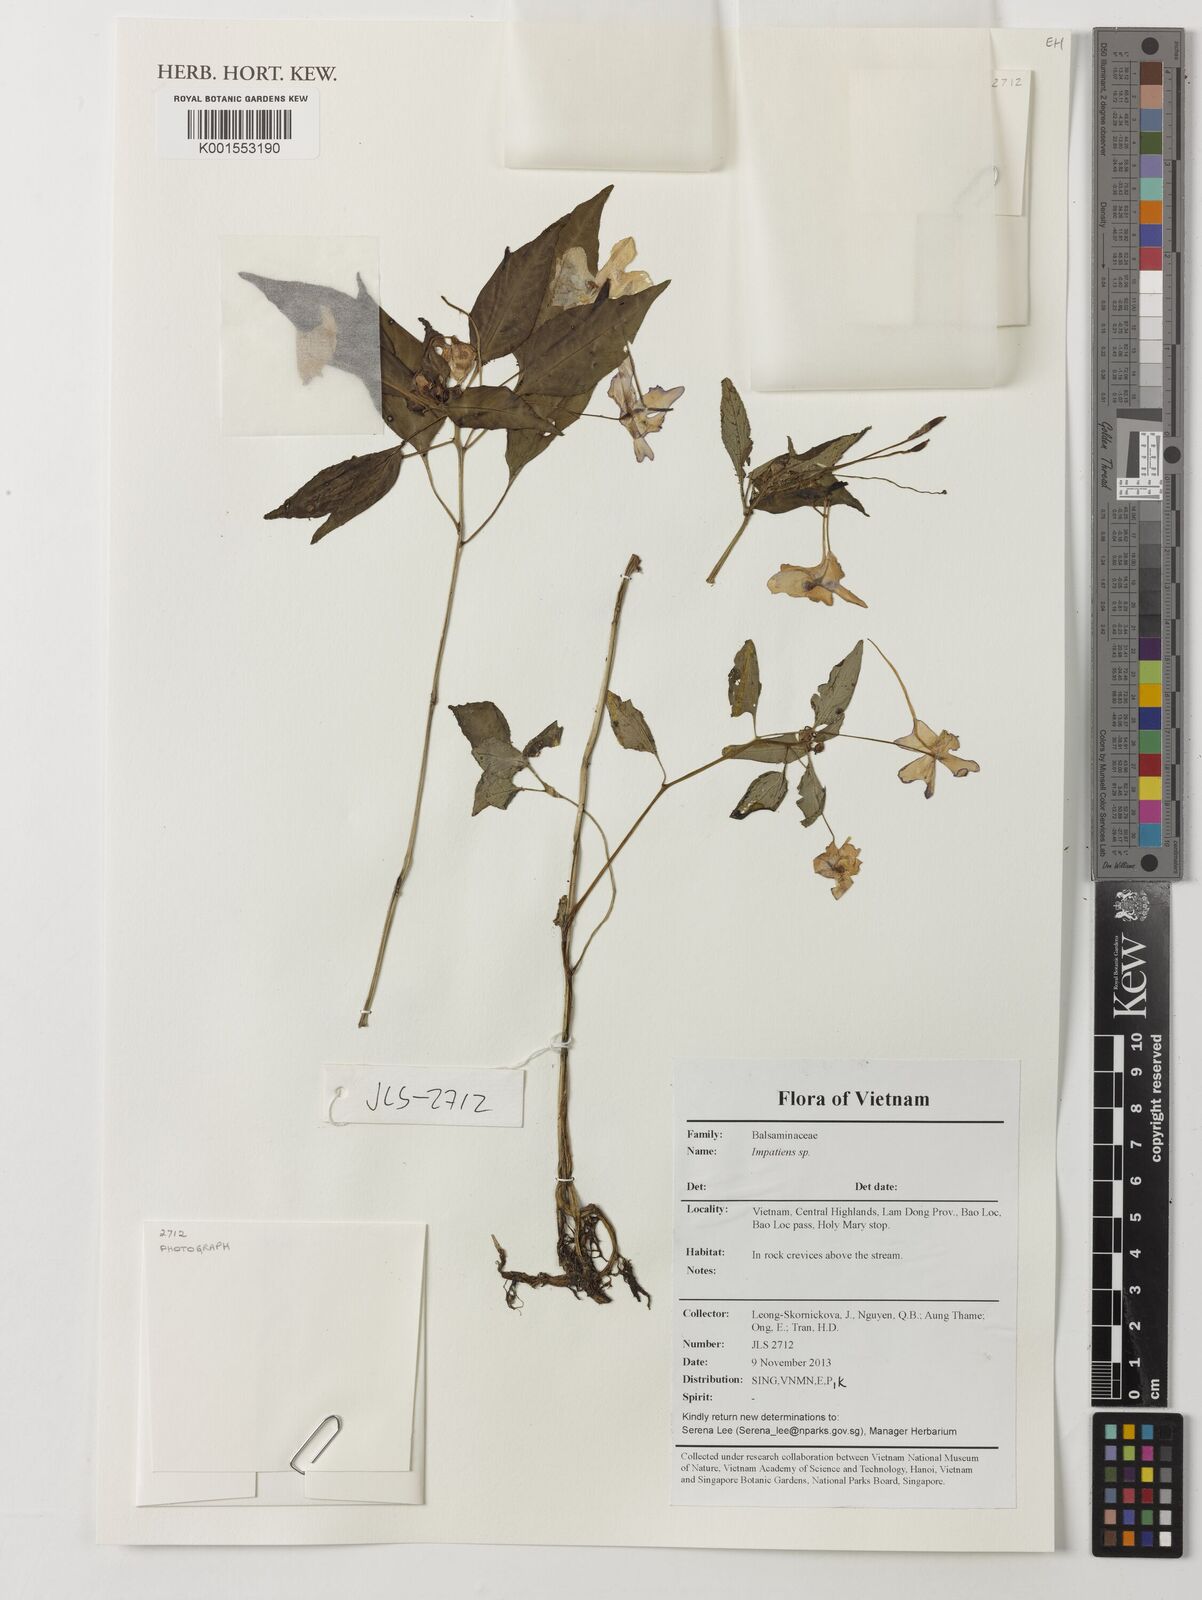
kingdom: Plantae
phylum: Tracheophyta
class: Magnoliopsida
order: Ericales
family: Balsaminaceae
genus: Impatiens
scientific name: Impatiens
